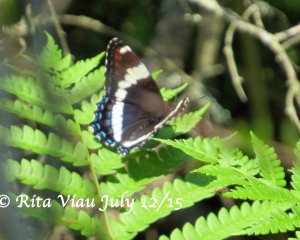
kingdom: Animalia
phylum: Arthropoda
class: Insecta
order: Lepidoptera
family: Nymphalidae
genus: Limenitis
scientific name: Limenitis arthemis
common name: Red-spotted Admiral
